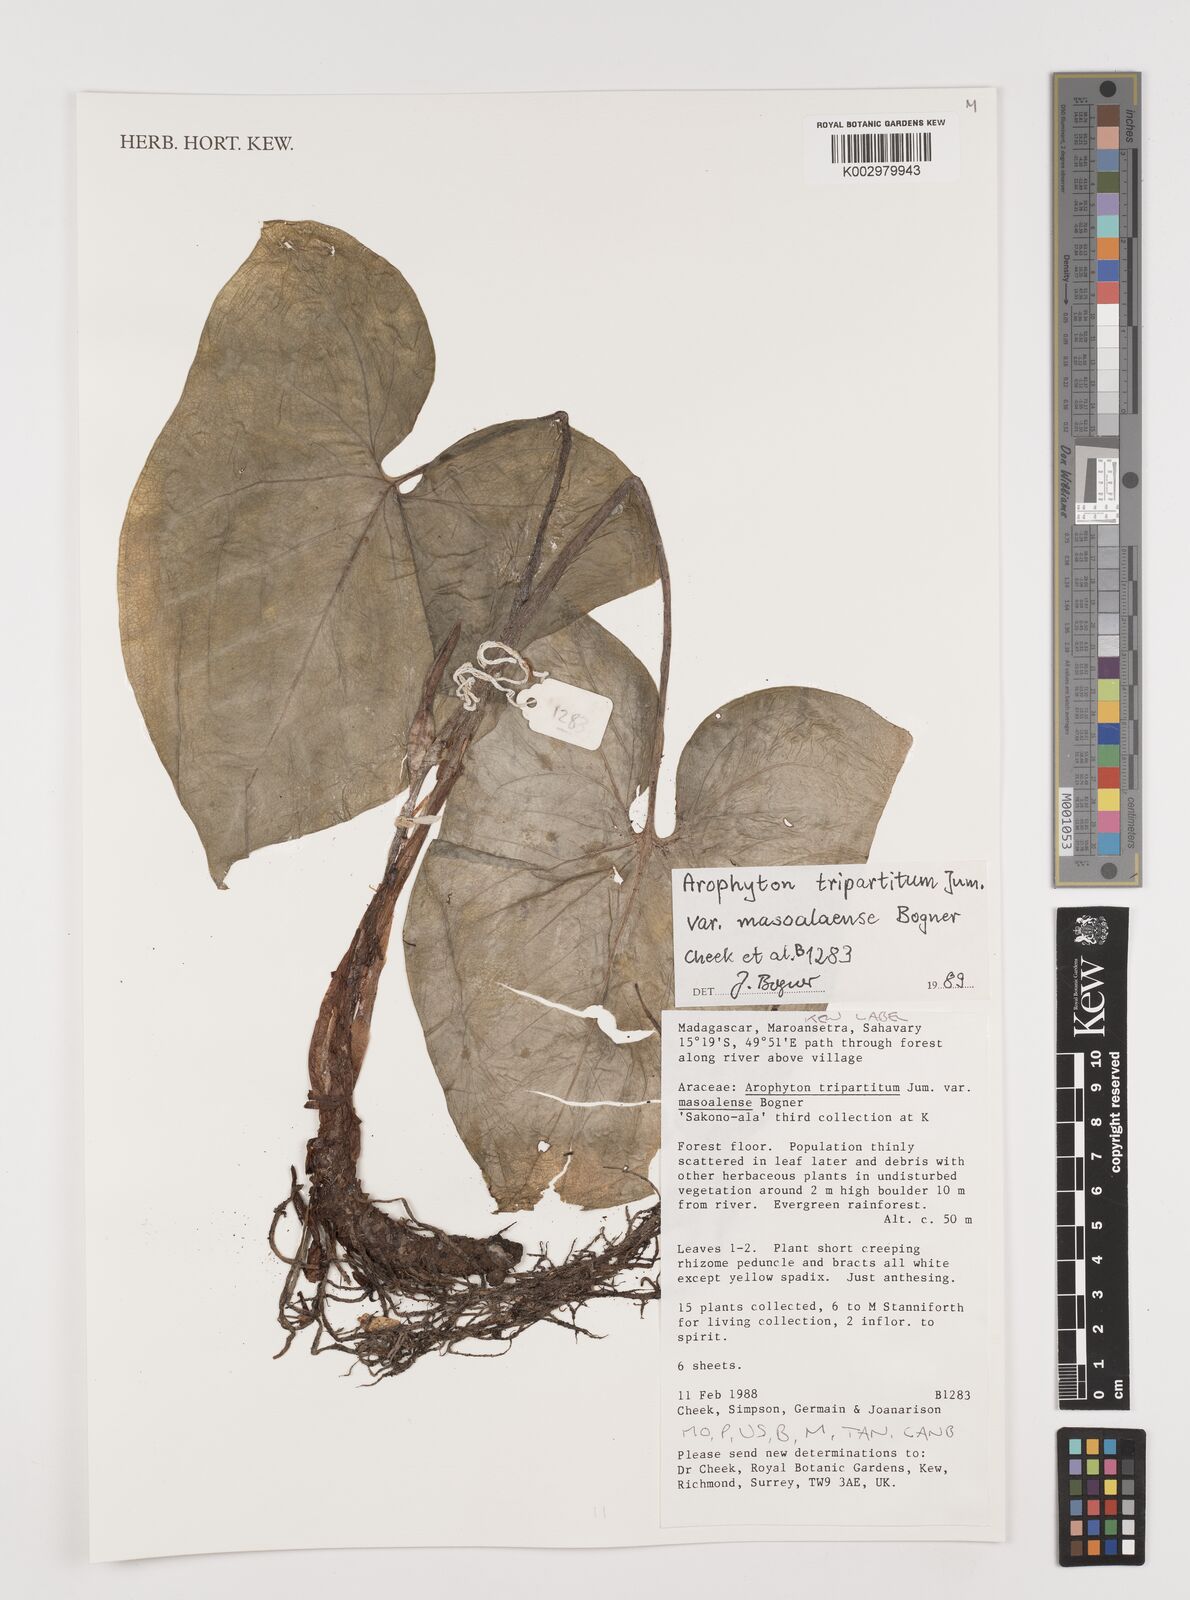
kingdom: Plantae
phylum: Tracheophyta
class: Liliopsida
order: Alismatales
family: Araceae
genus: Arophyton
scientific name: Arophyton tripartitum
